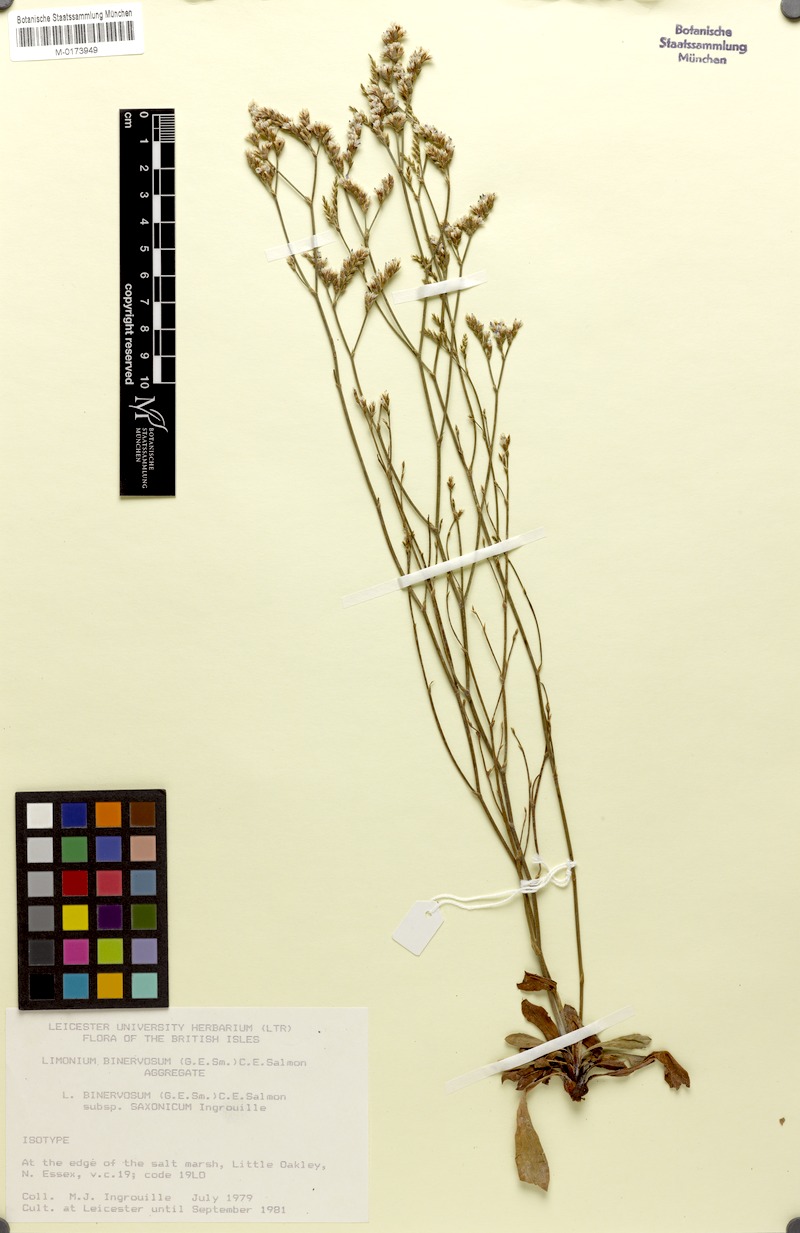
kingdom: Plantae
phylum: Tracheophyta
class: Magnoliopsida
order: Caryophyllales
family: Plumbaginaceae
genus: Limonium
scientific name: Limonium binervosum
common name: Rock sea-lavender
